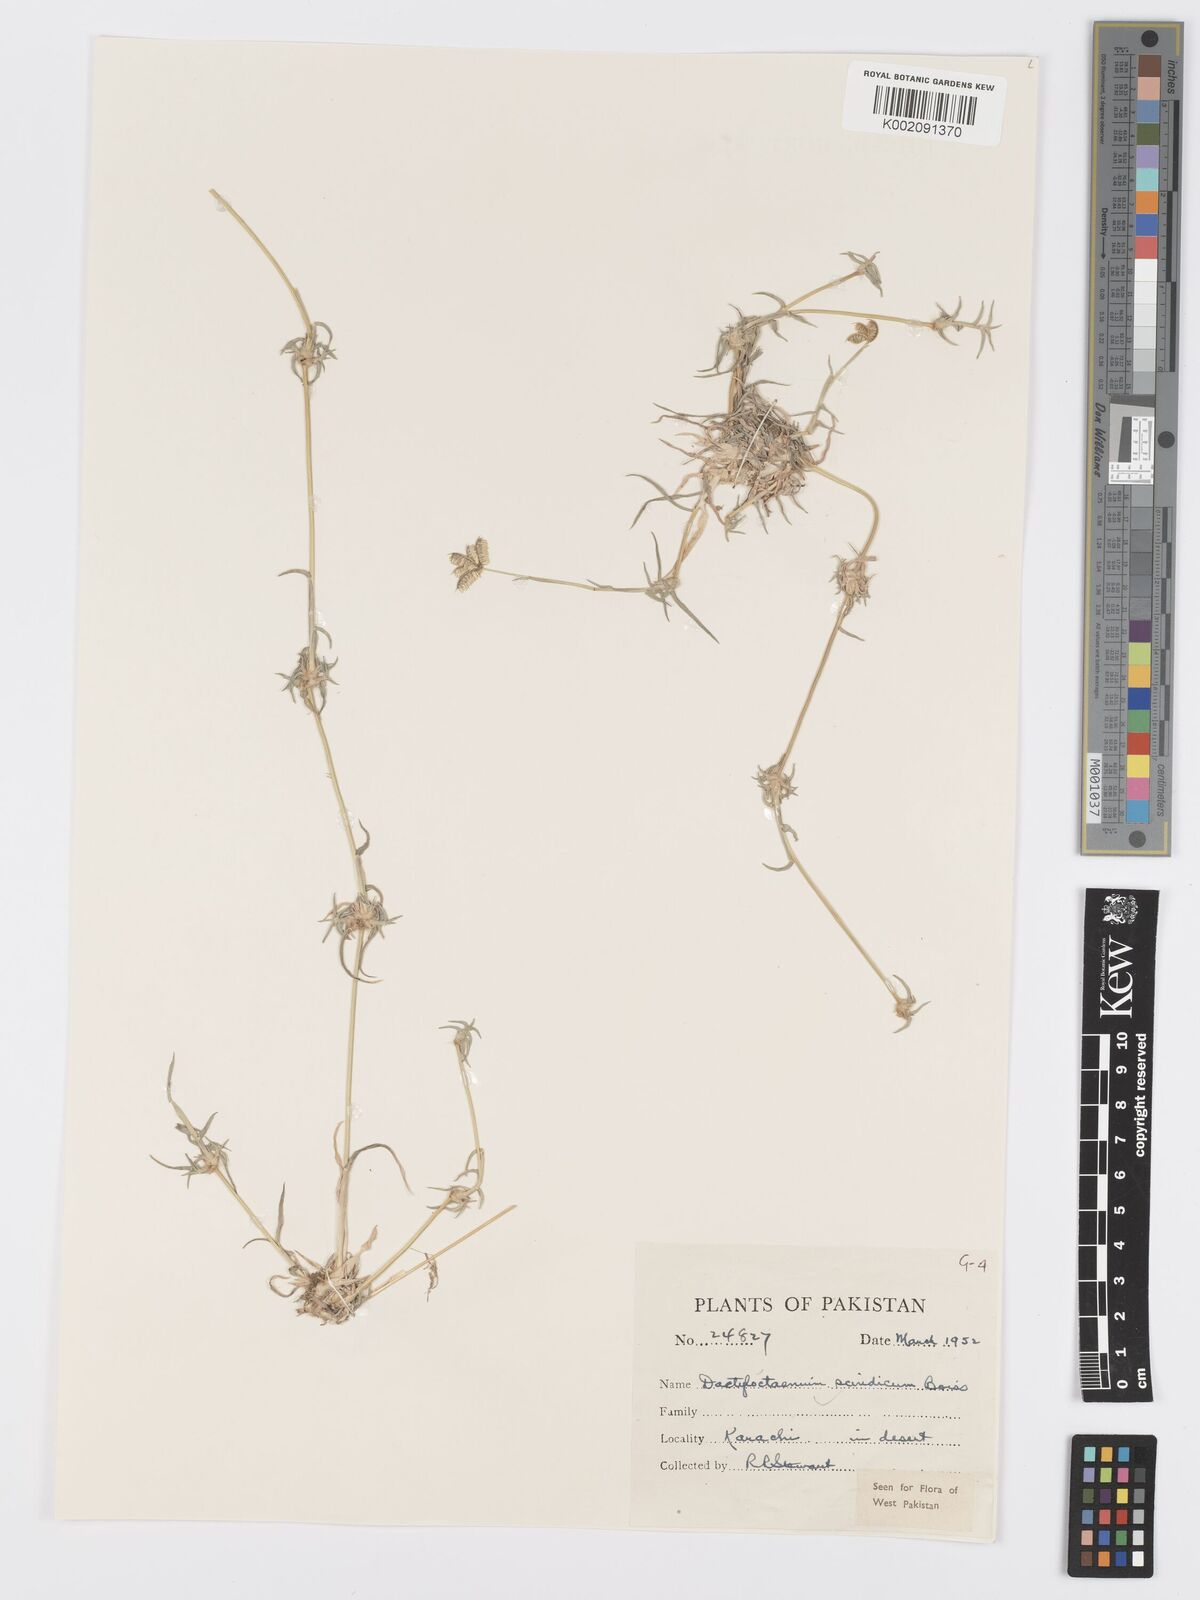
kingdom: Plantae
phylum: Tracheophyta
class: Liliopsida
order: Poales
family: Poaceae
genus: Dactyloctenium
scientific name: Dactyloctenium scindicum
